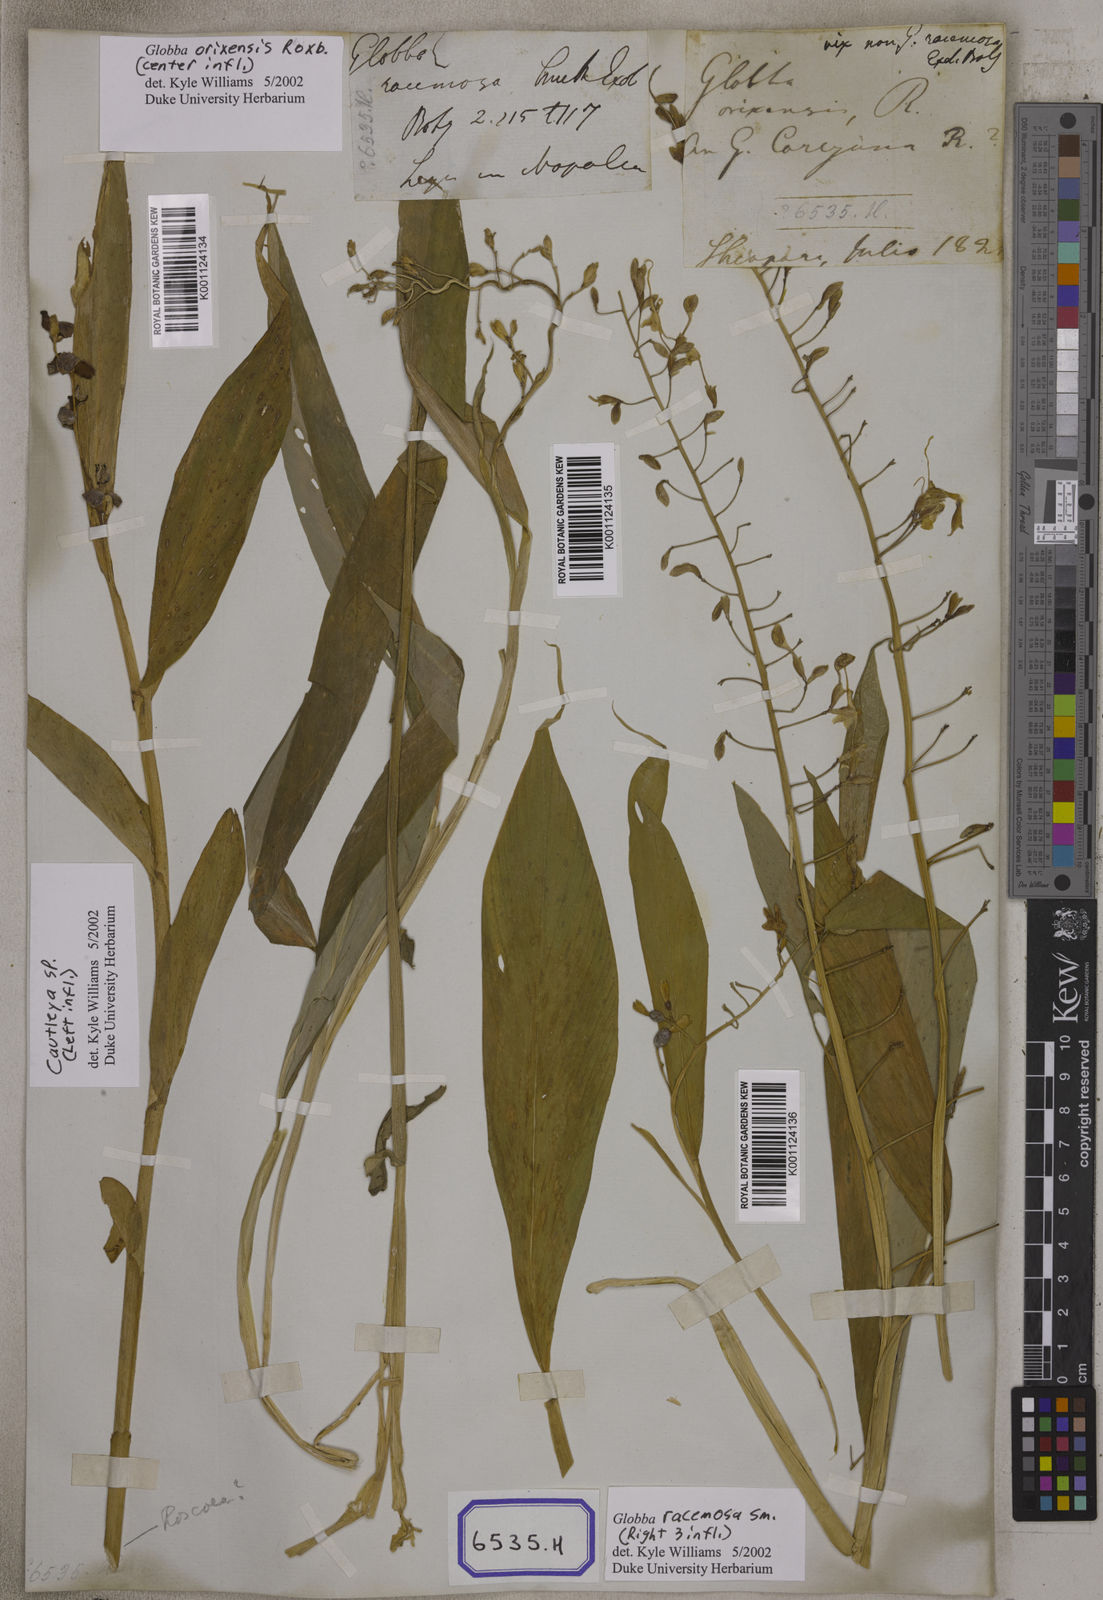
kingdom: Plantae
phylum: Tracheophyta
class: Liliopsida
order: Zingiberales
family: Zingiberaceae
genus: Globba
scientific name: Globba
